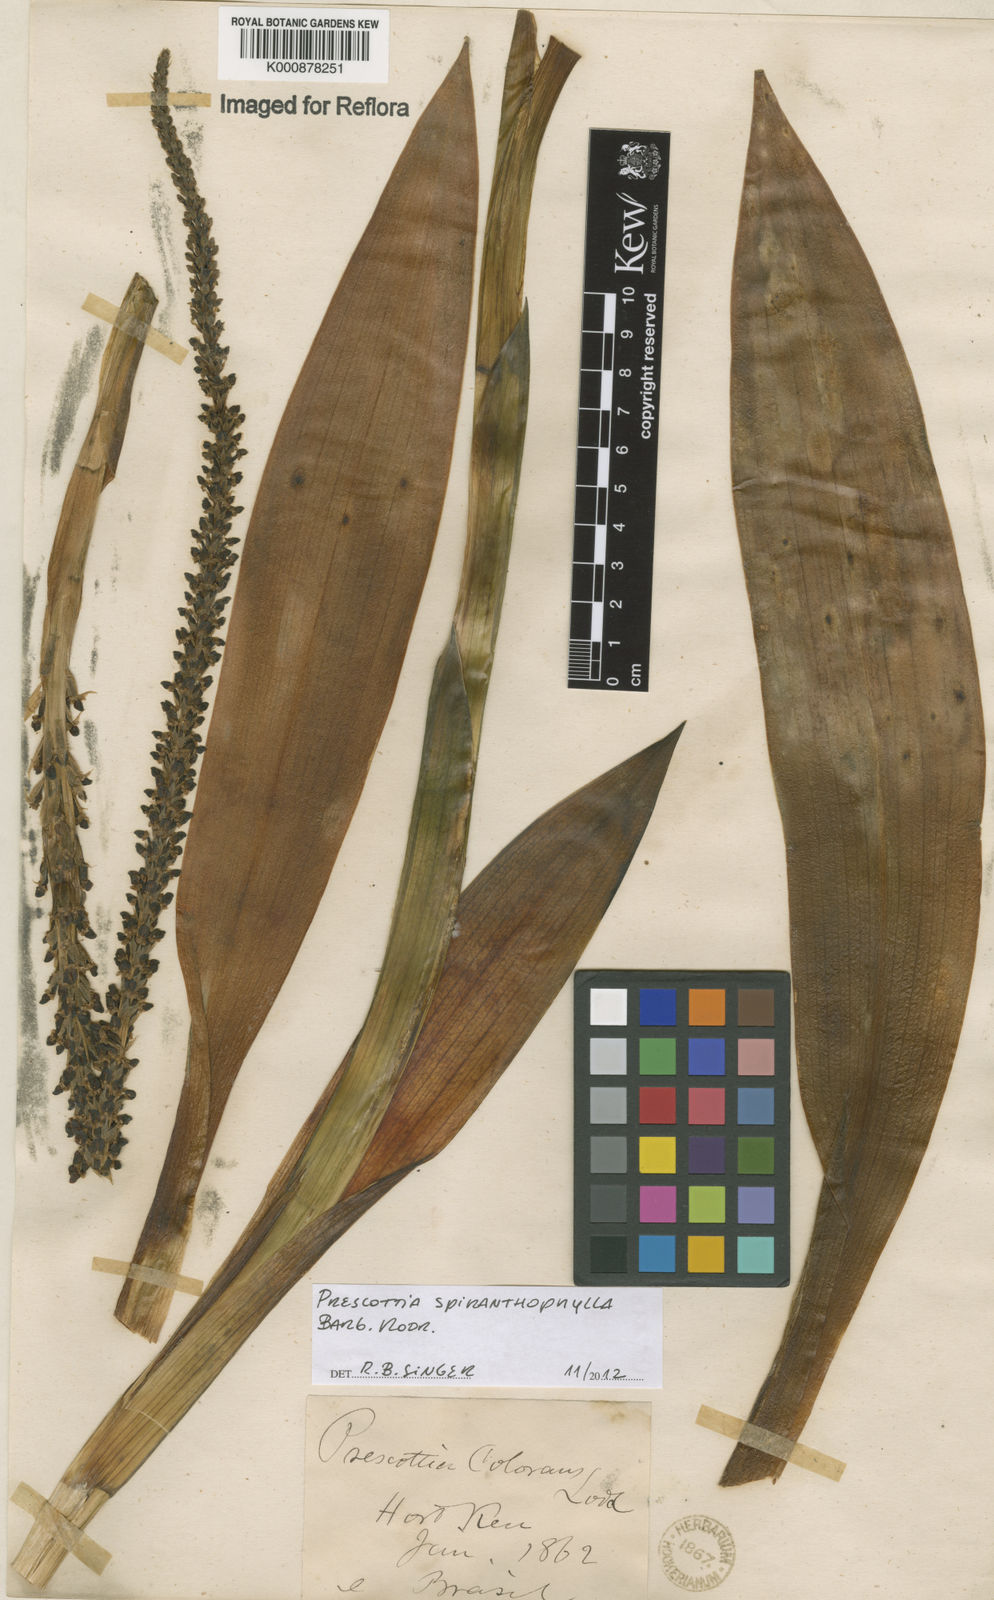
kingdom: Plantae
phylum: Tracheophyta
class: Liliopsida
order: Asparagales
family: Orchidaceae
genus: Prescottia
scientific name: Prescottia spiranthophylla
